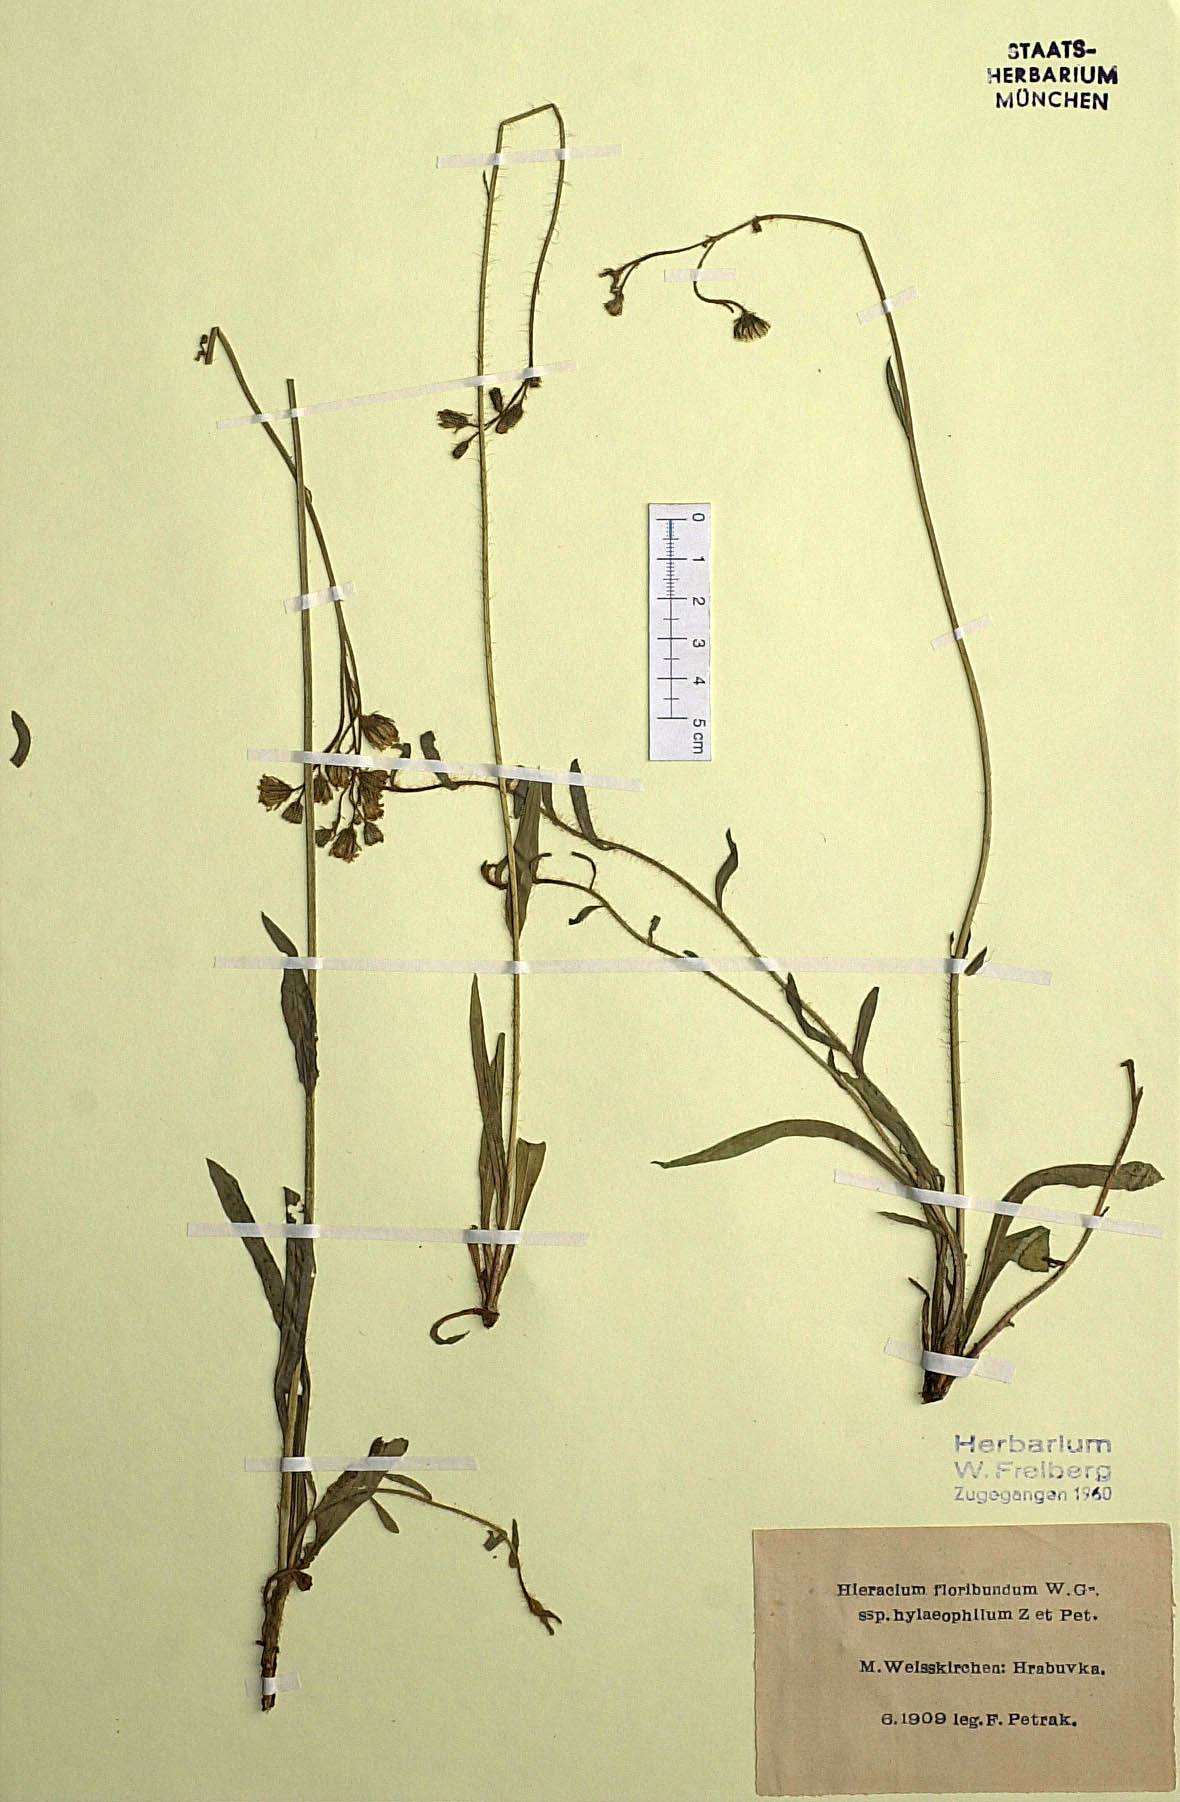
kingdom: Plantae
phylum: Tracheophyta
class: Magnoliopsida
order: Asterales
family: Asteraceae
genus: Pilosella
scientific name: Pilosella floribunda
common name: Glaucous hawkweed
